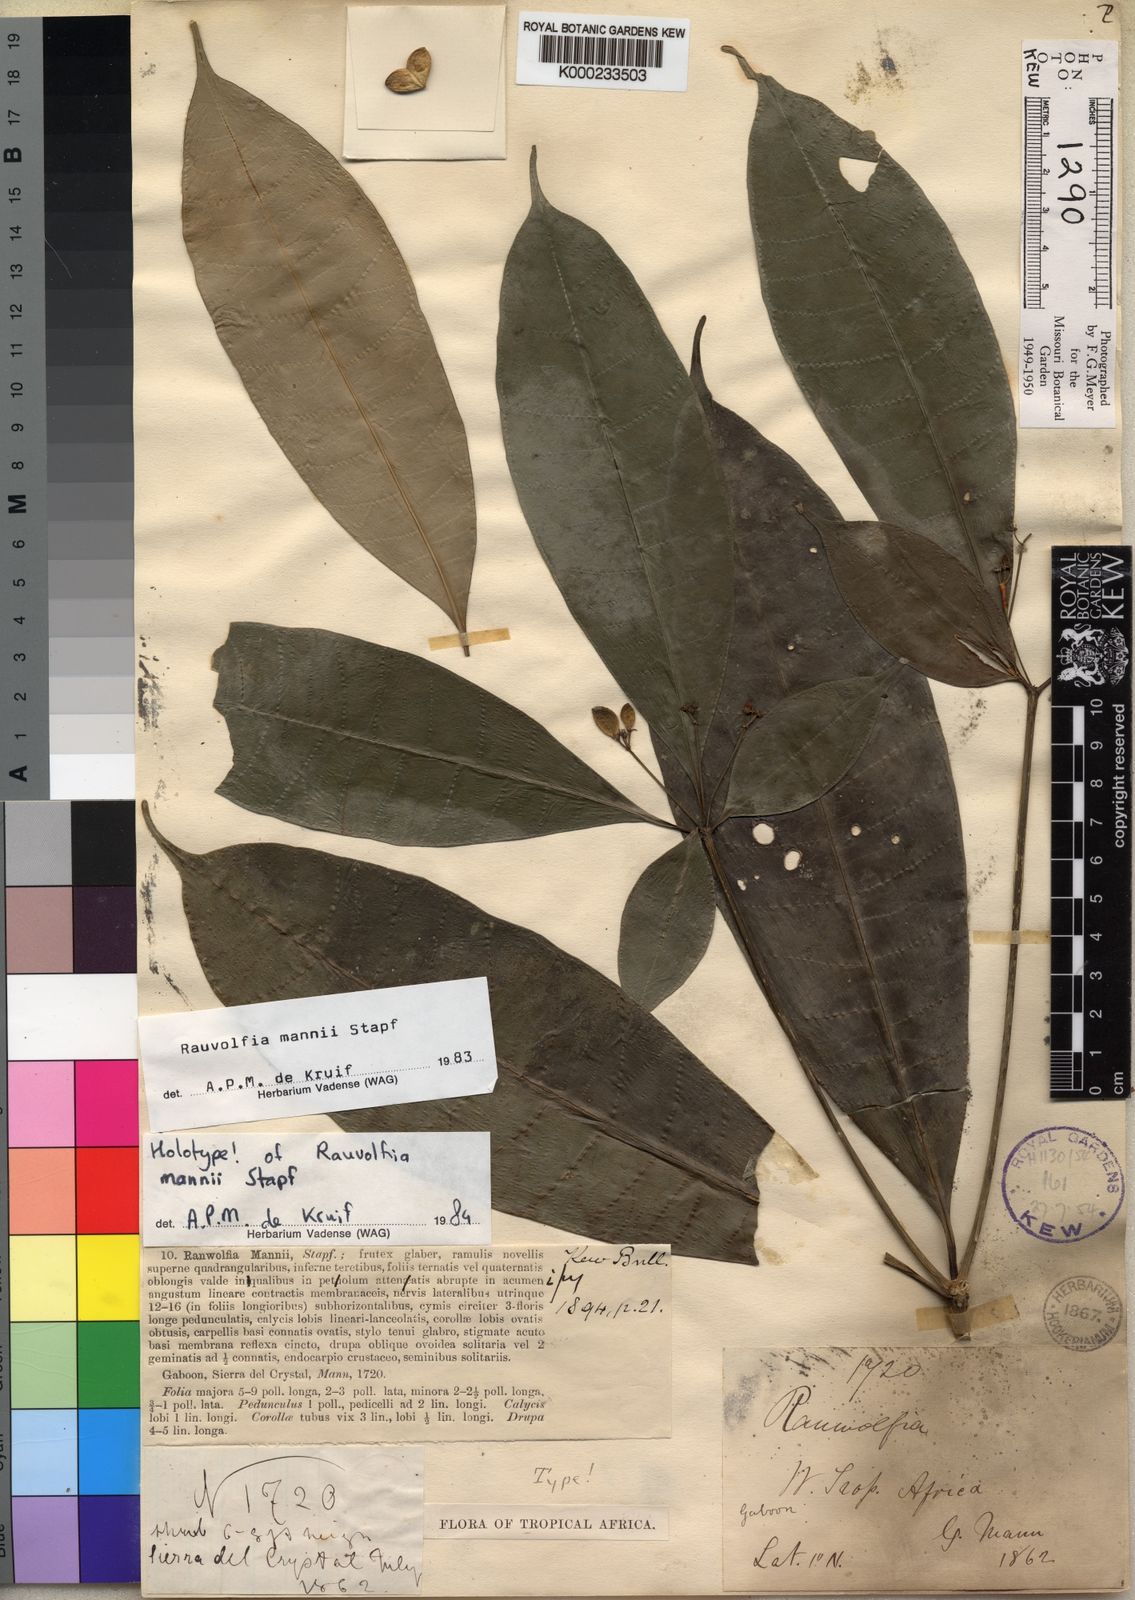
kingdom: Plantae
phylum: Tracheophyta
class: Magnoliopsida
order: Gentianales
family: Apocynaceae
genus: Rauvolfia
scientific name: Rauvolfia mannii
